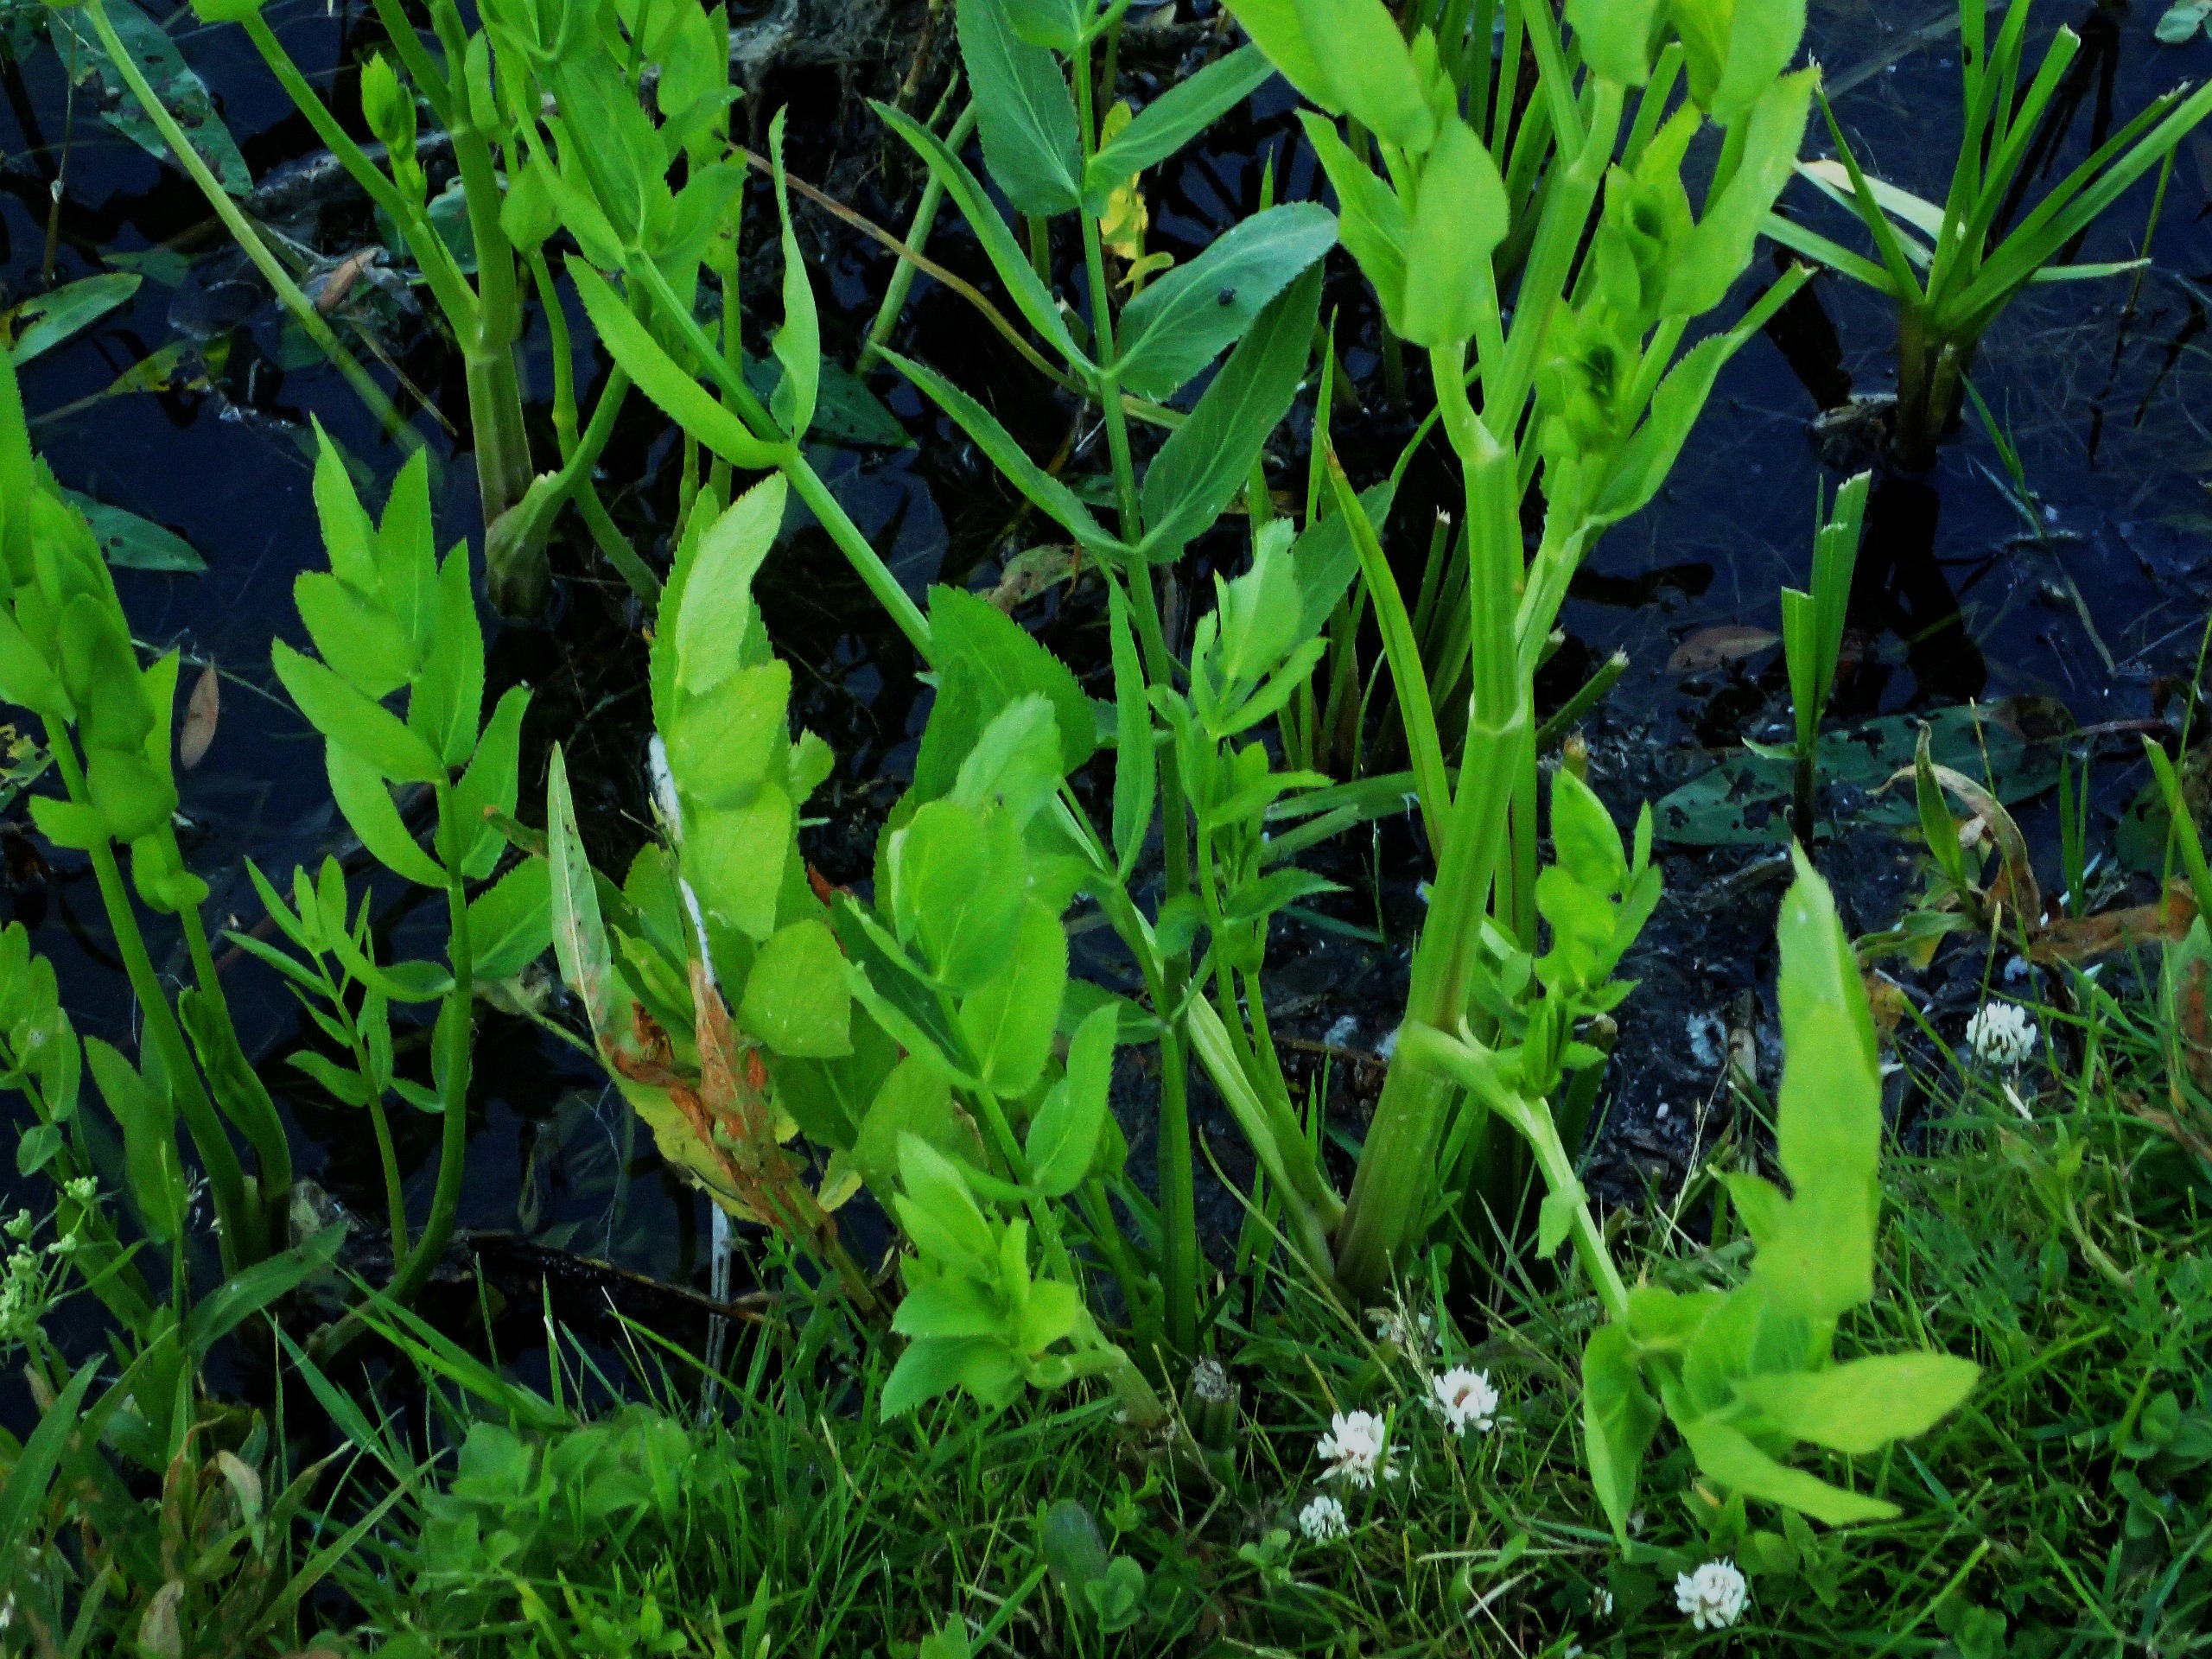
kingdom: Plantae
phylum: Tracheophyta
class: Magnoliopsida
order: Apiales
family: Apiaceae
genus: Sium
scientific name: Sium latifolium
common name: Bredbladet mærke
